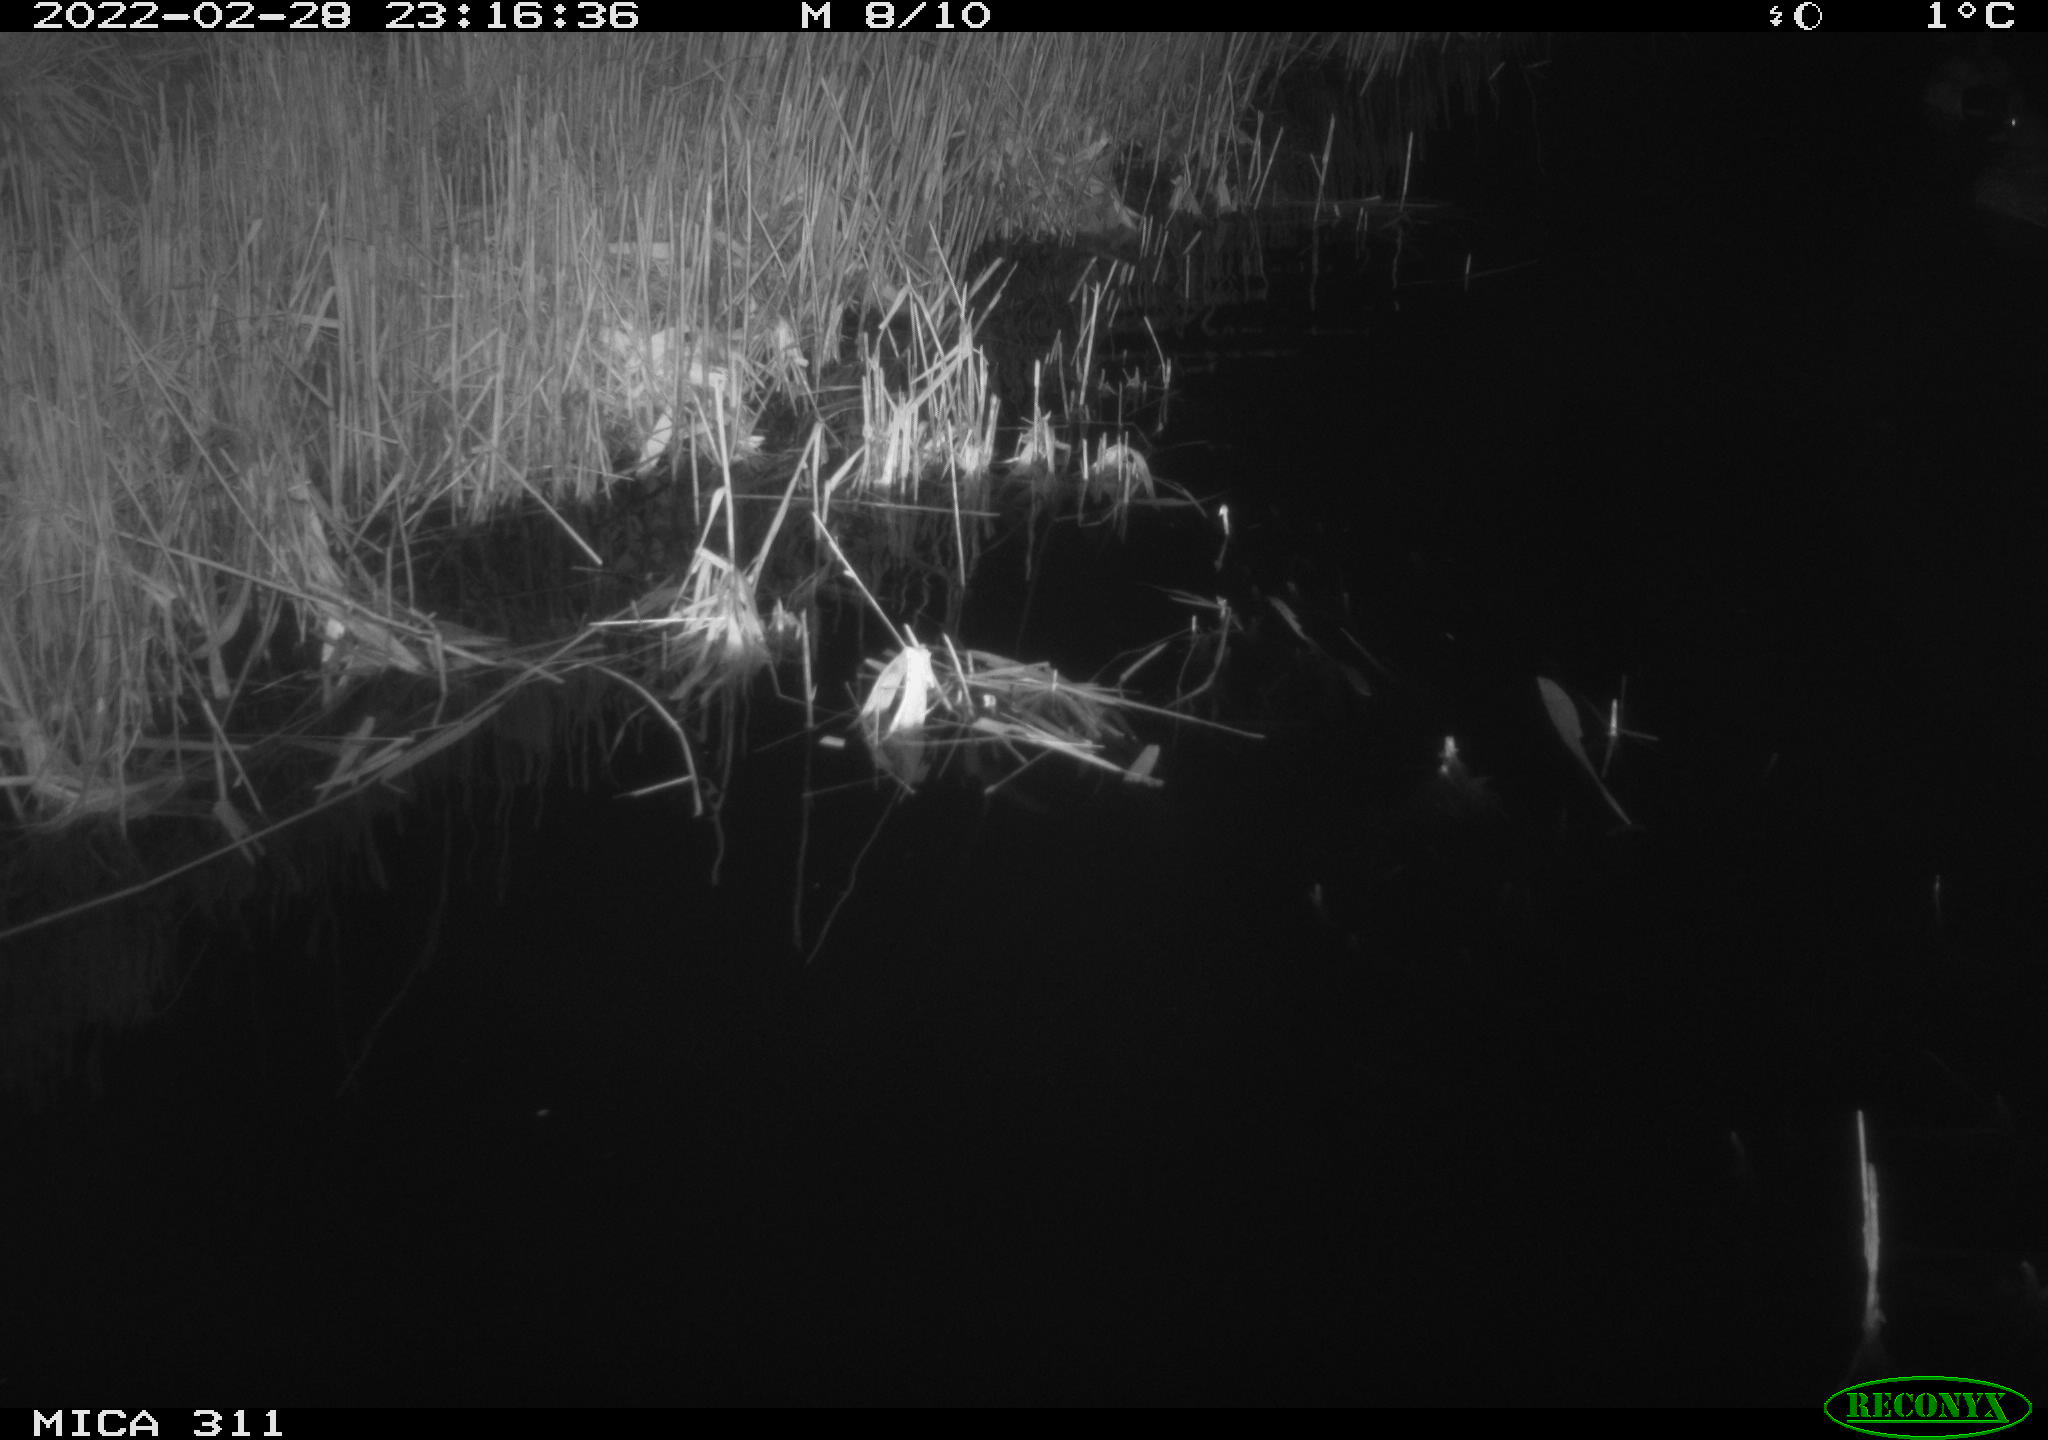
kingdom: Animalia
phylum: Chordata
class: Aves
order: Anseriformes
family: Anatidae
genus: Anas
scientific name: Anas platyrhynchos
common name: Mallard
